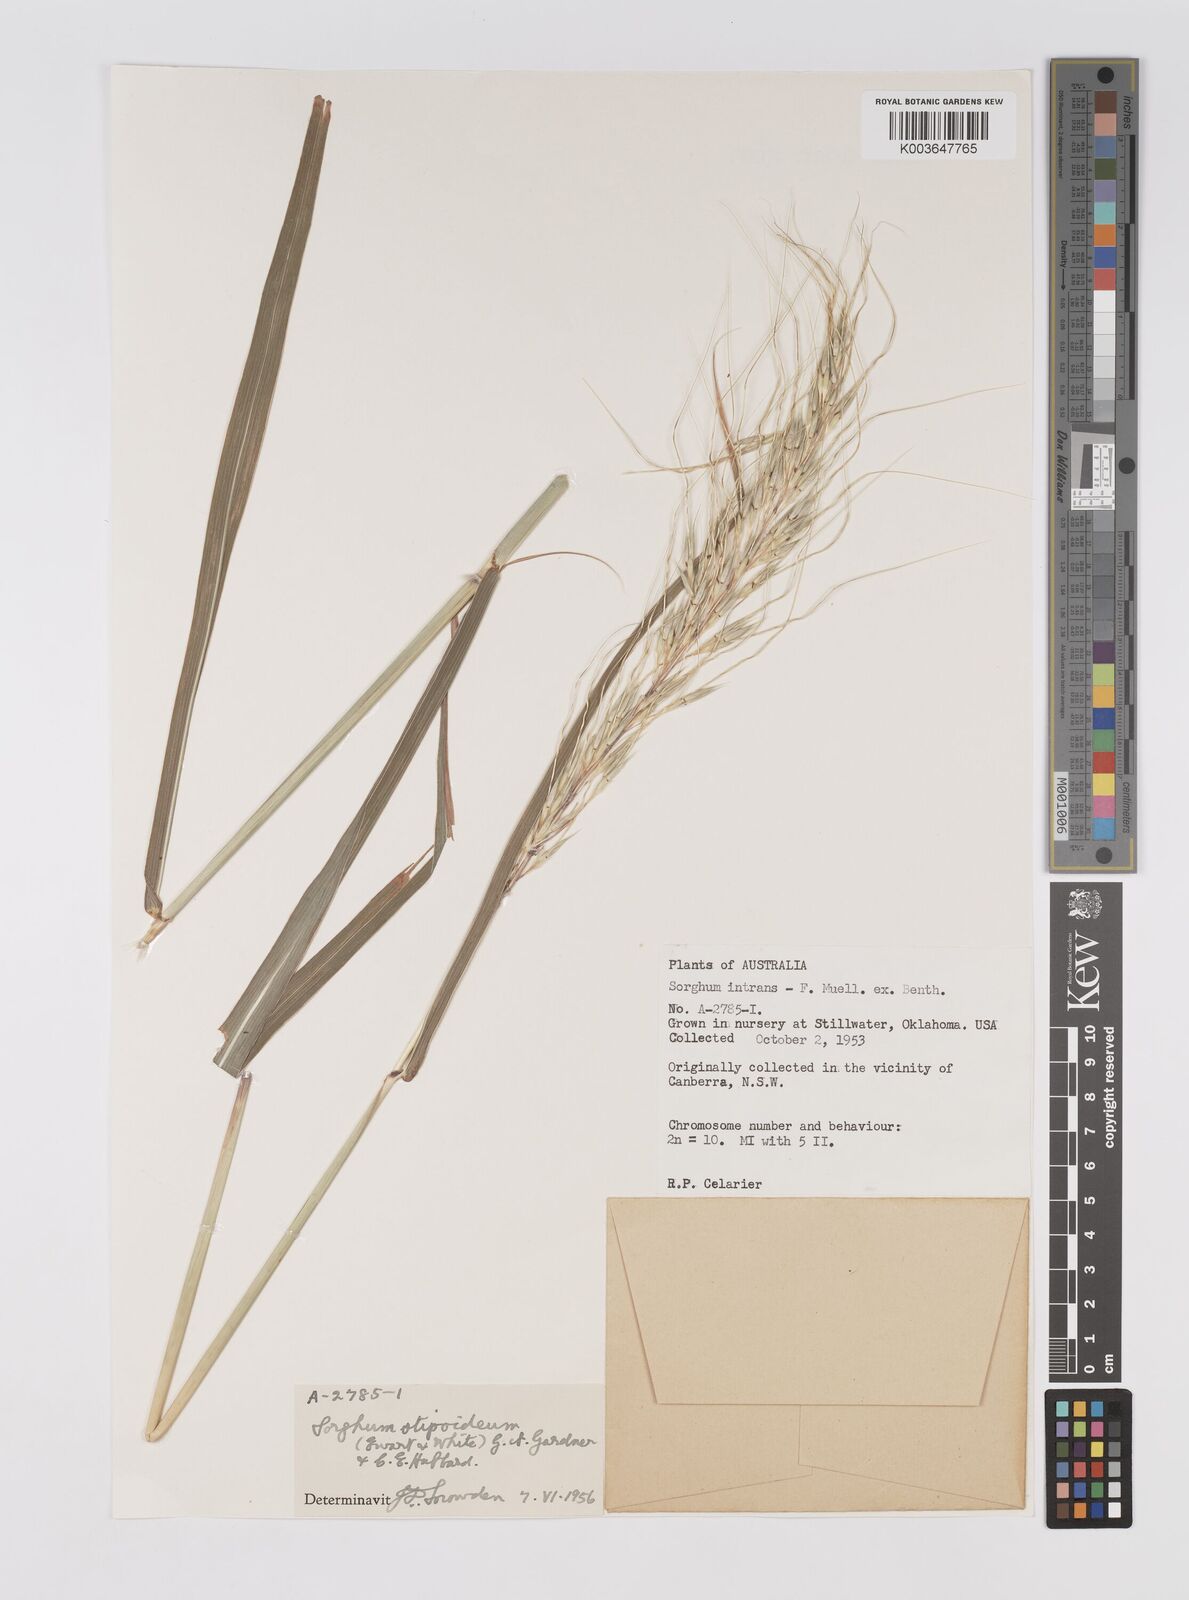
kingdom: Plantae
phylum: Tracheophyta
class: Liliopsida
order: Poales
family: Poaceae
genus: Sarga
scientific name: Sarga stipoidea
